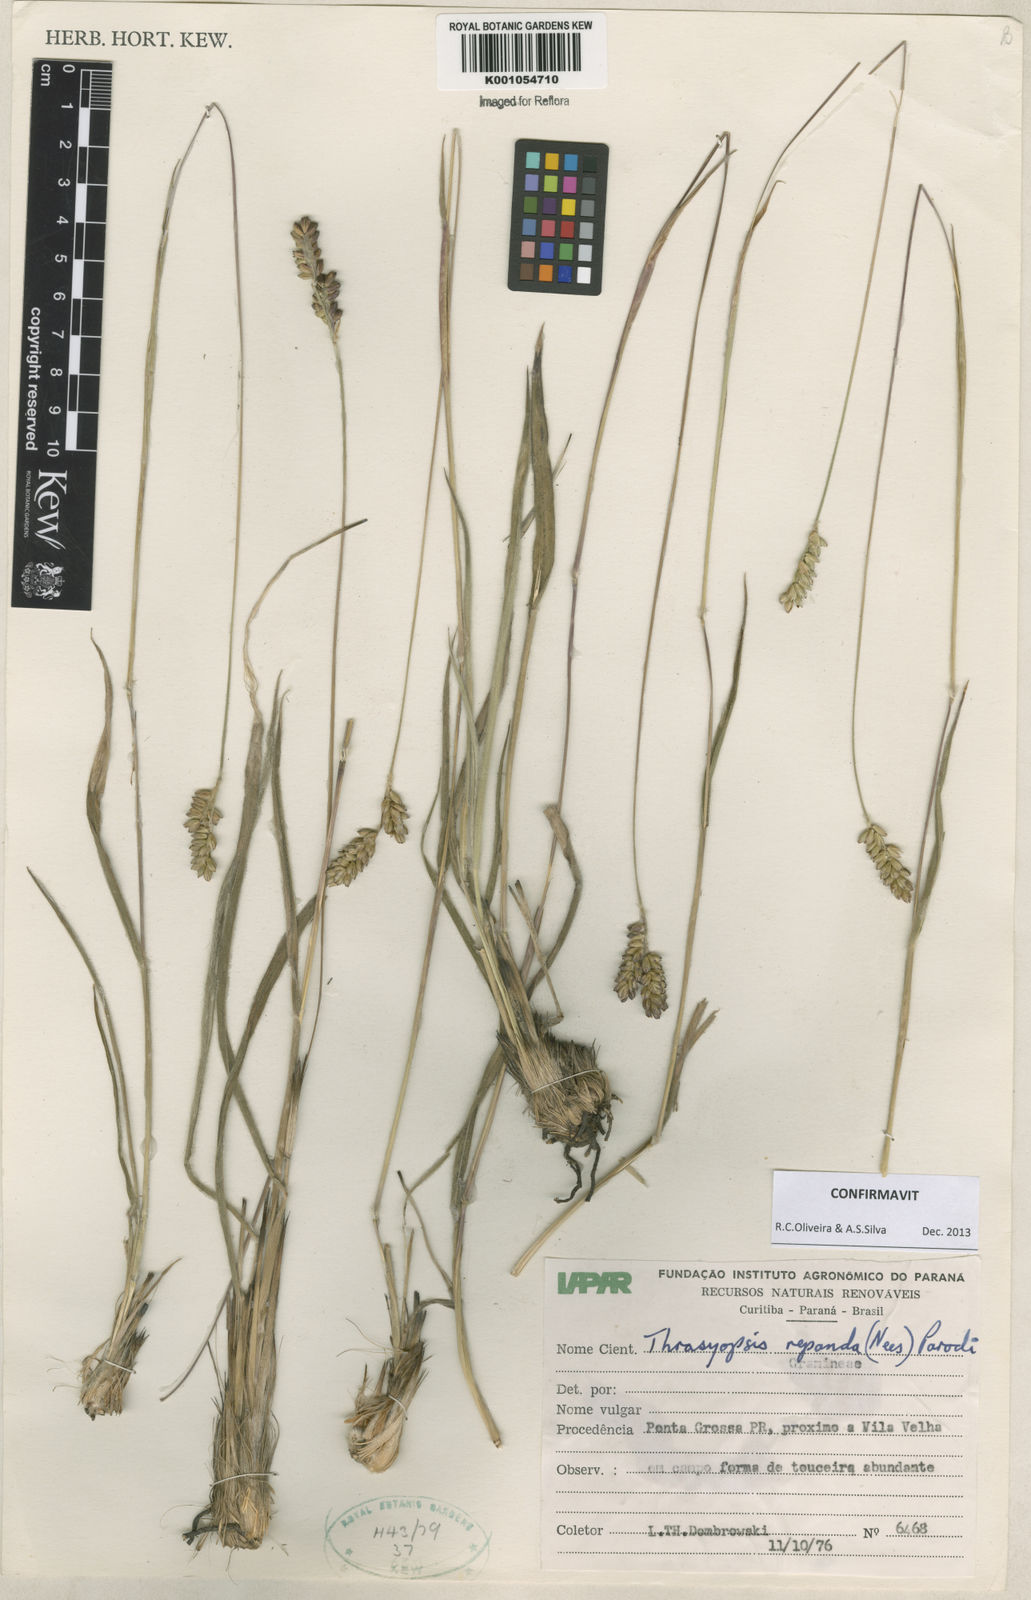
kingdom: Plantae
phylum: Tracheophyta
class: Liliopsida
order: Poales
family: Poaceae
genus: Paspalum
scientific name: Paspalum repandum
